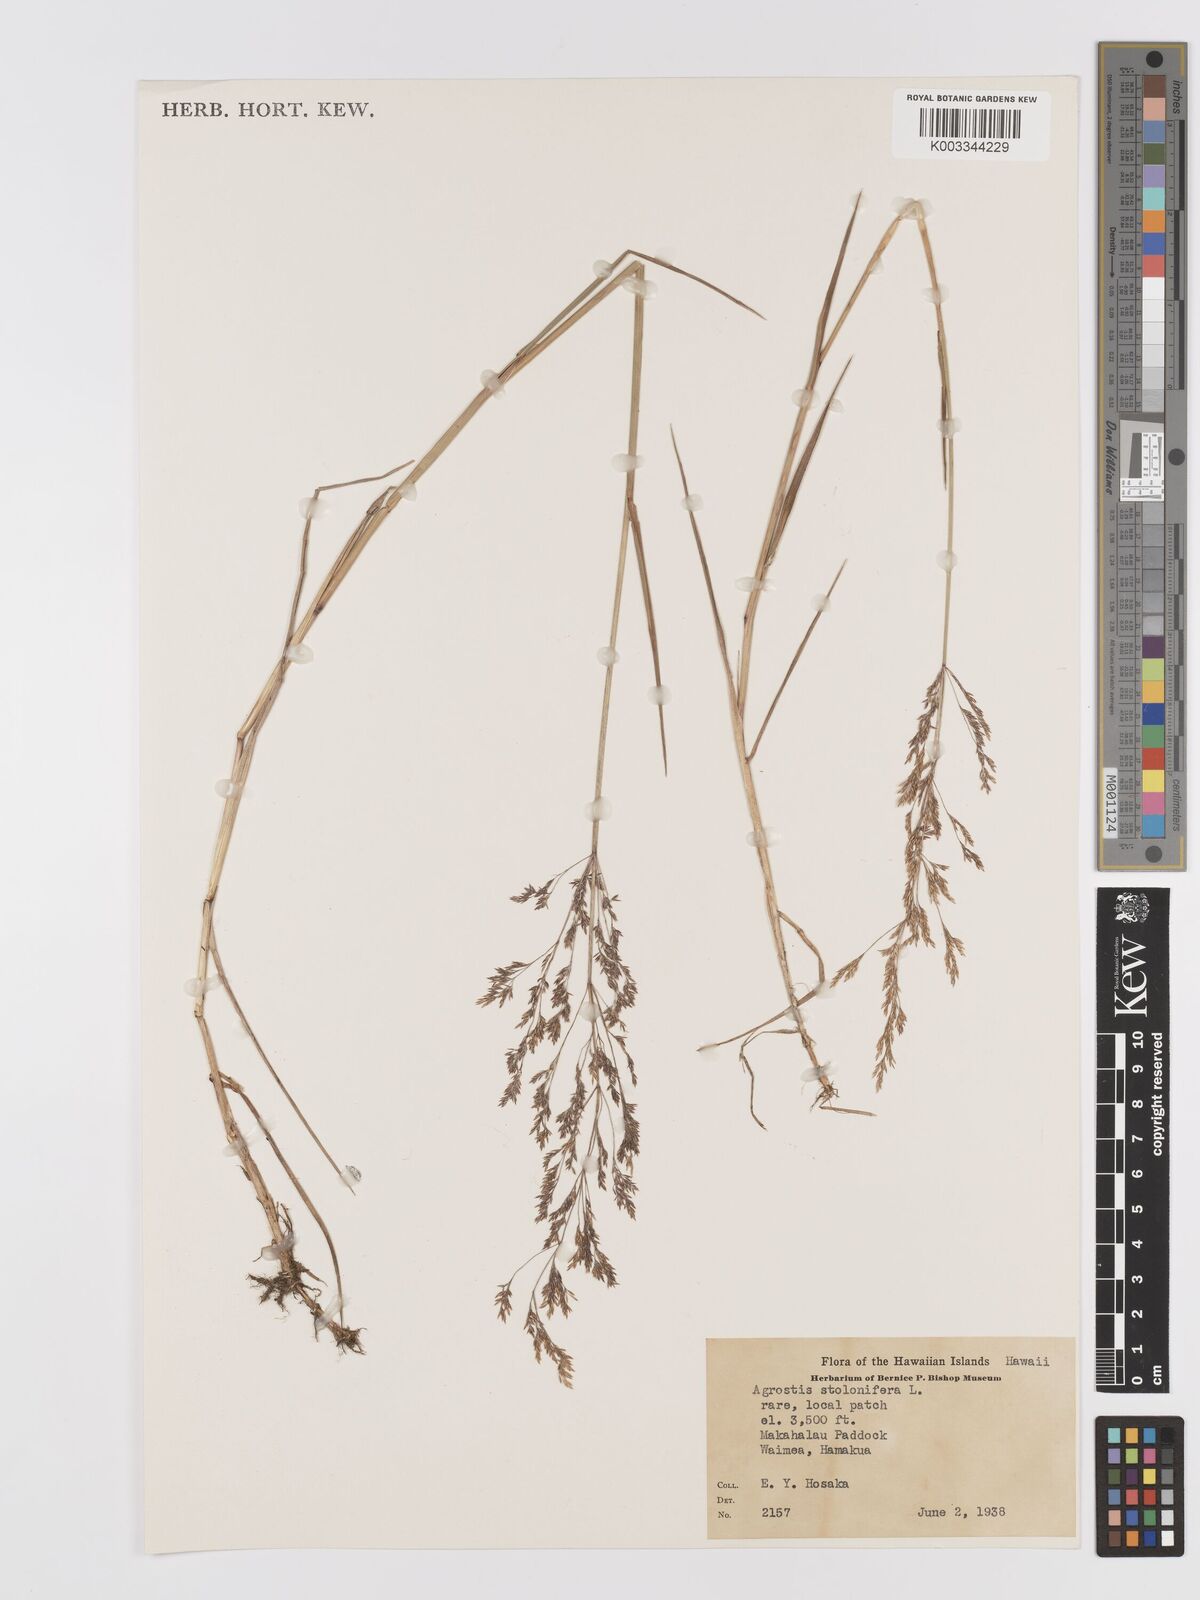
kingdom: Plantae
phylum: Tracheophyta
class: Liliopsida
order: Poales
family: Poaceae
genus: Agrostis
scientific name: Agrostis stolonifera
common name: Creeping bentgrass
